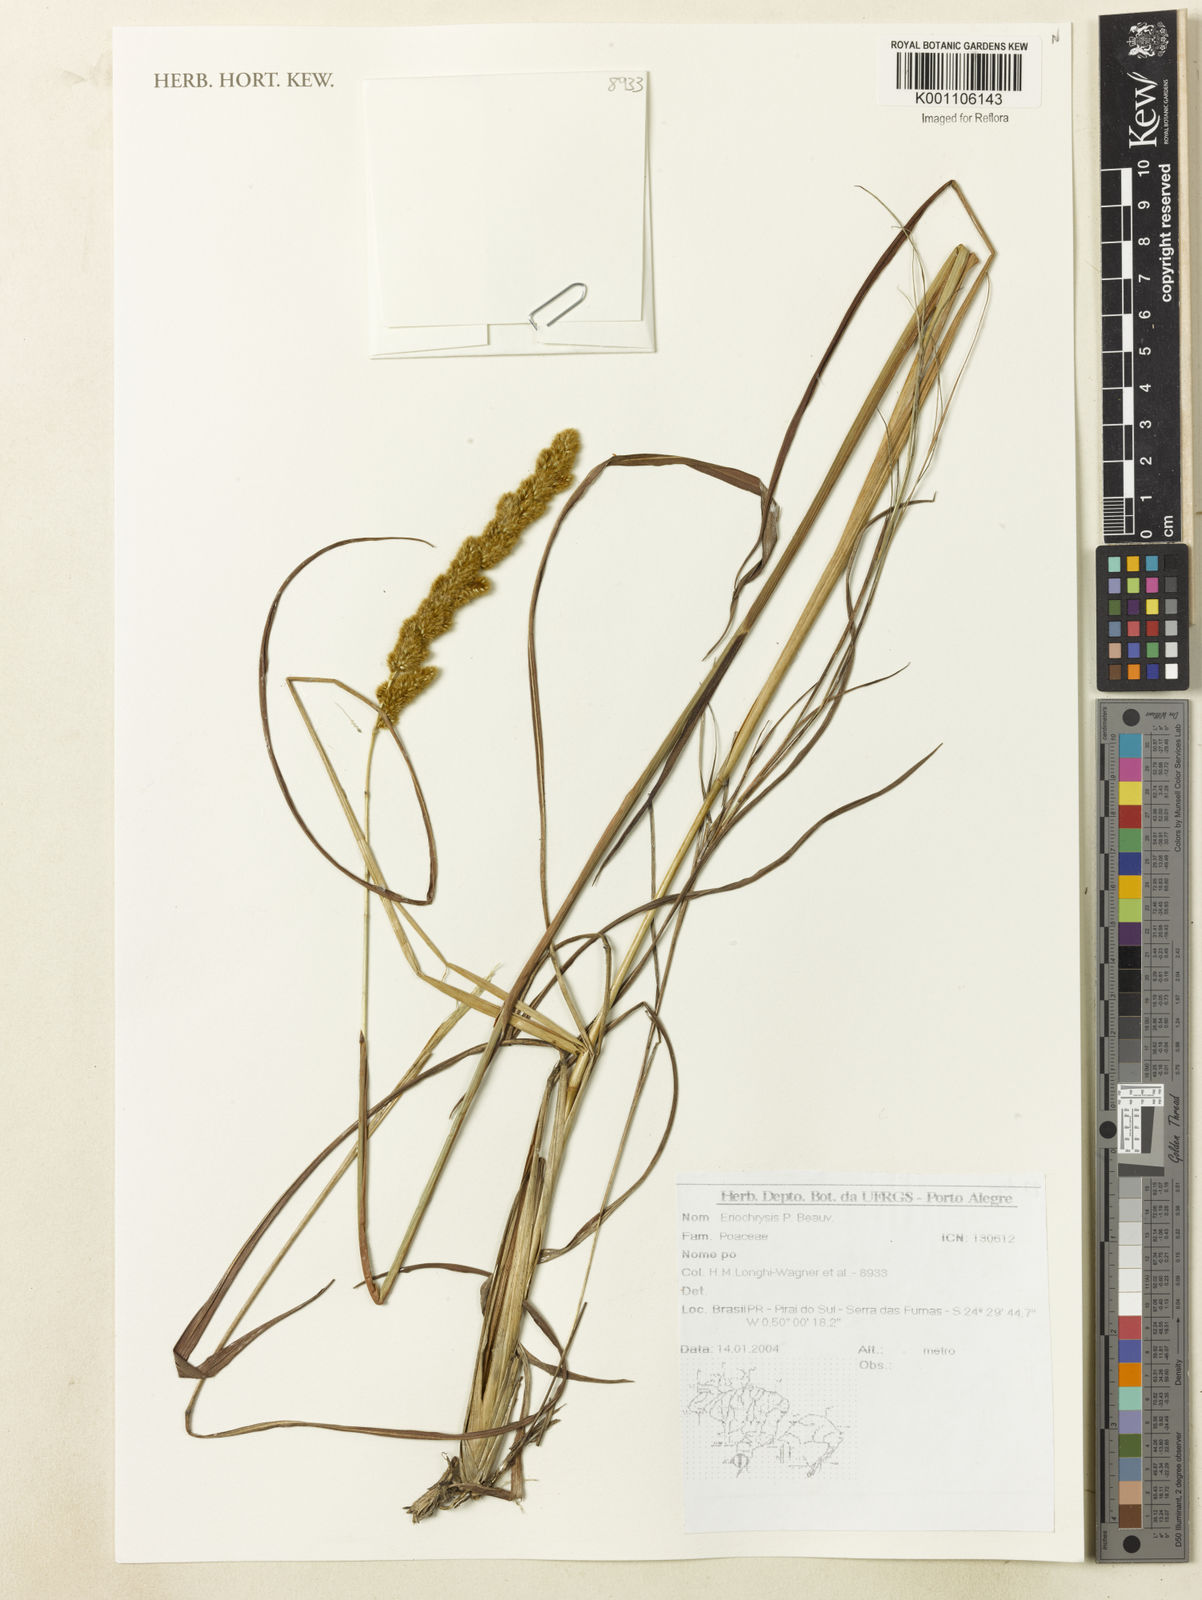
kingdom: Plantae
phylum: Tracheophyta
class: Liliopsida
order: Poales
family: Poaceae
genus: Eriochrysis
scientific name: Eriochrysis
